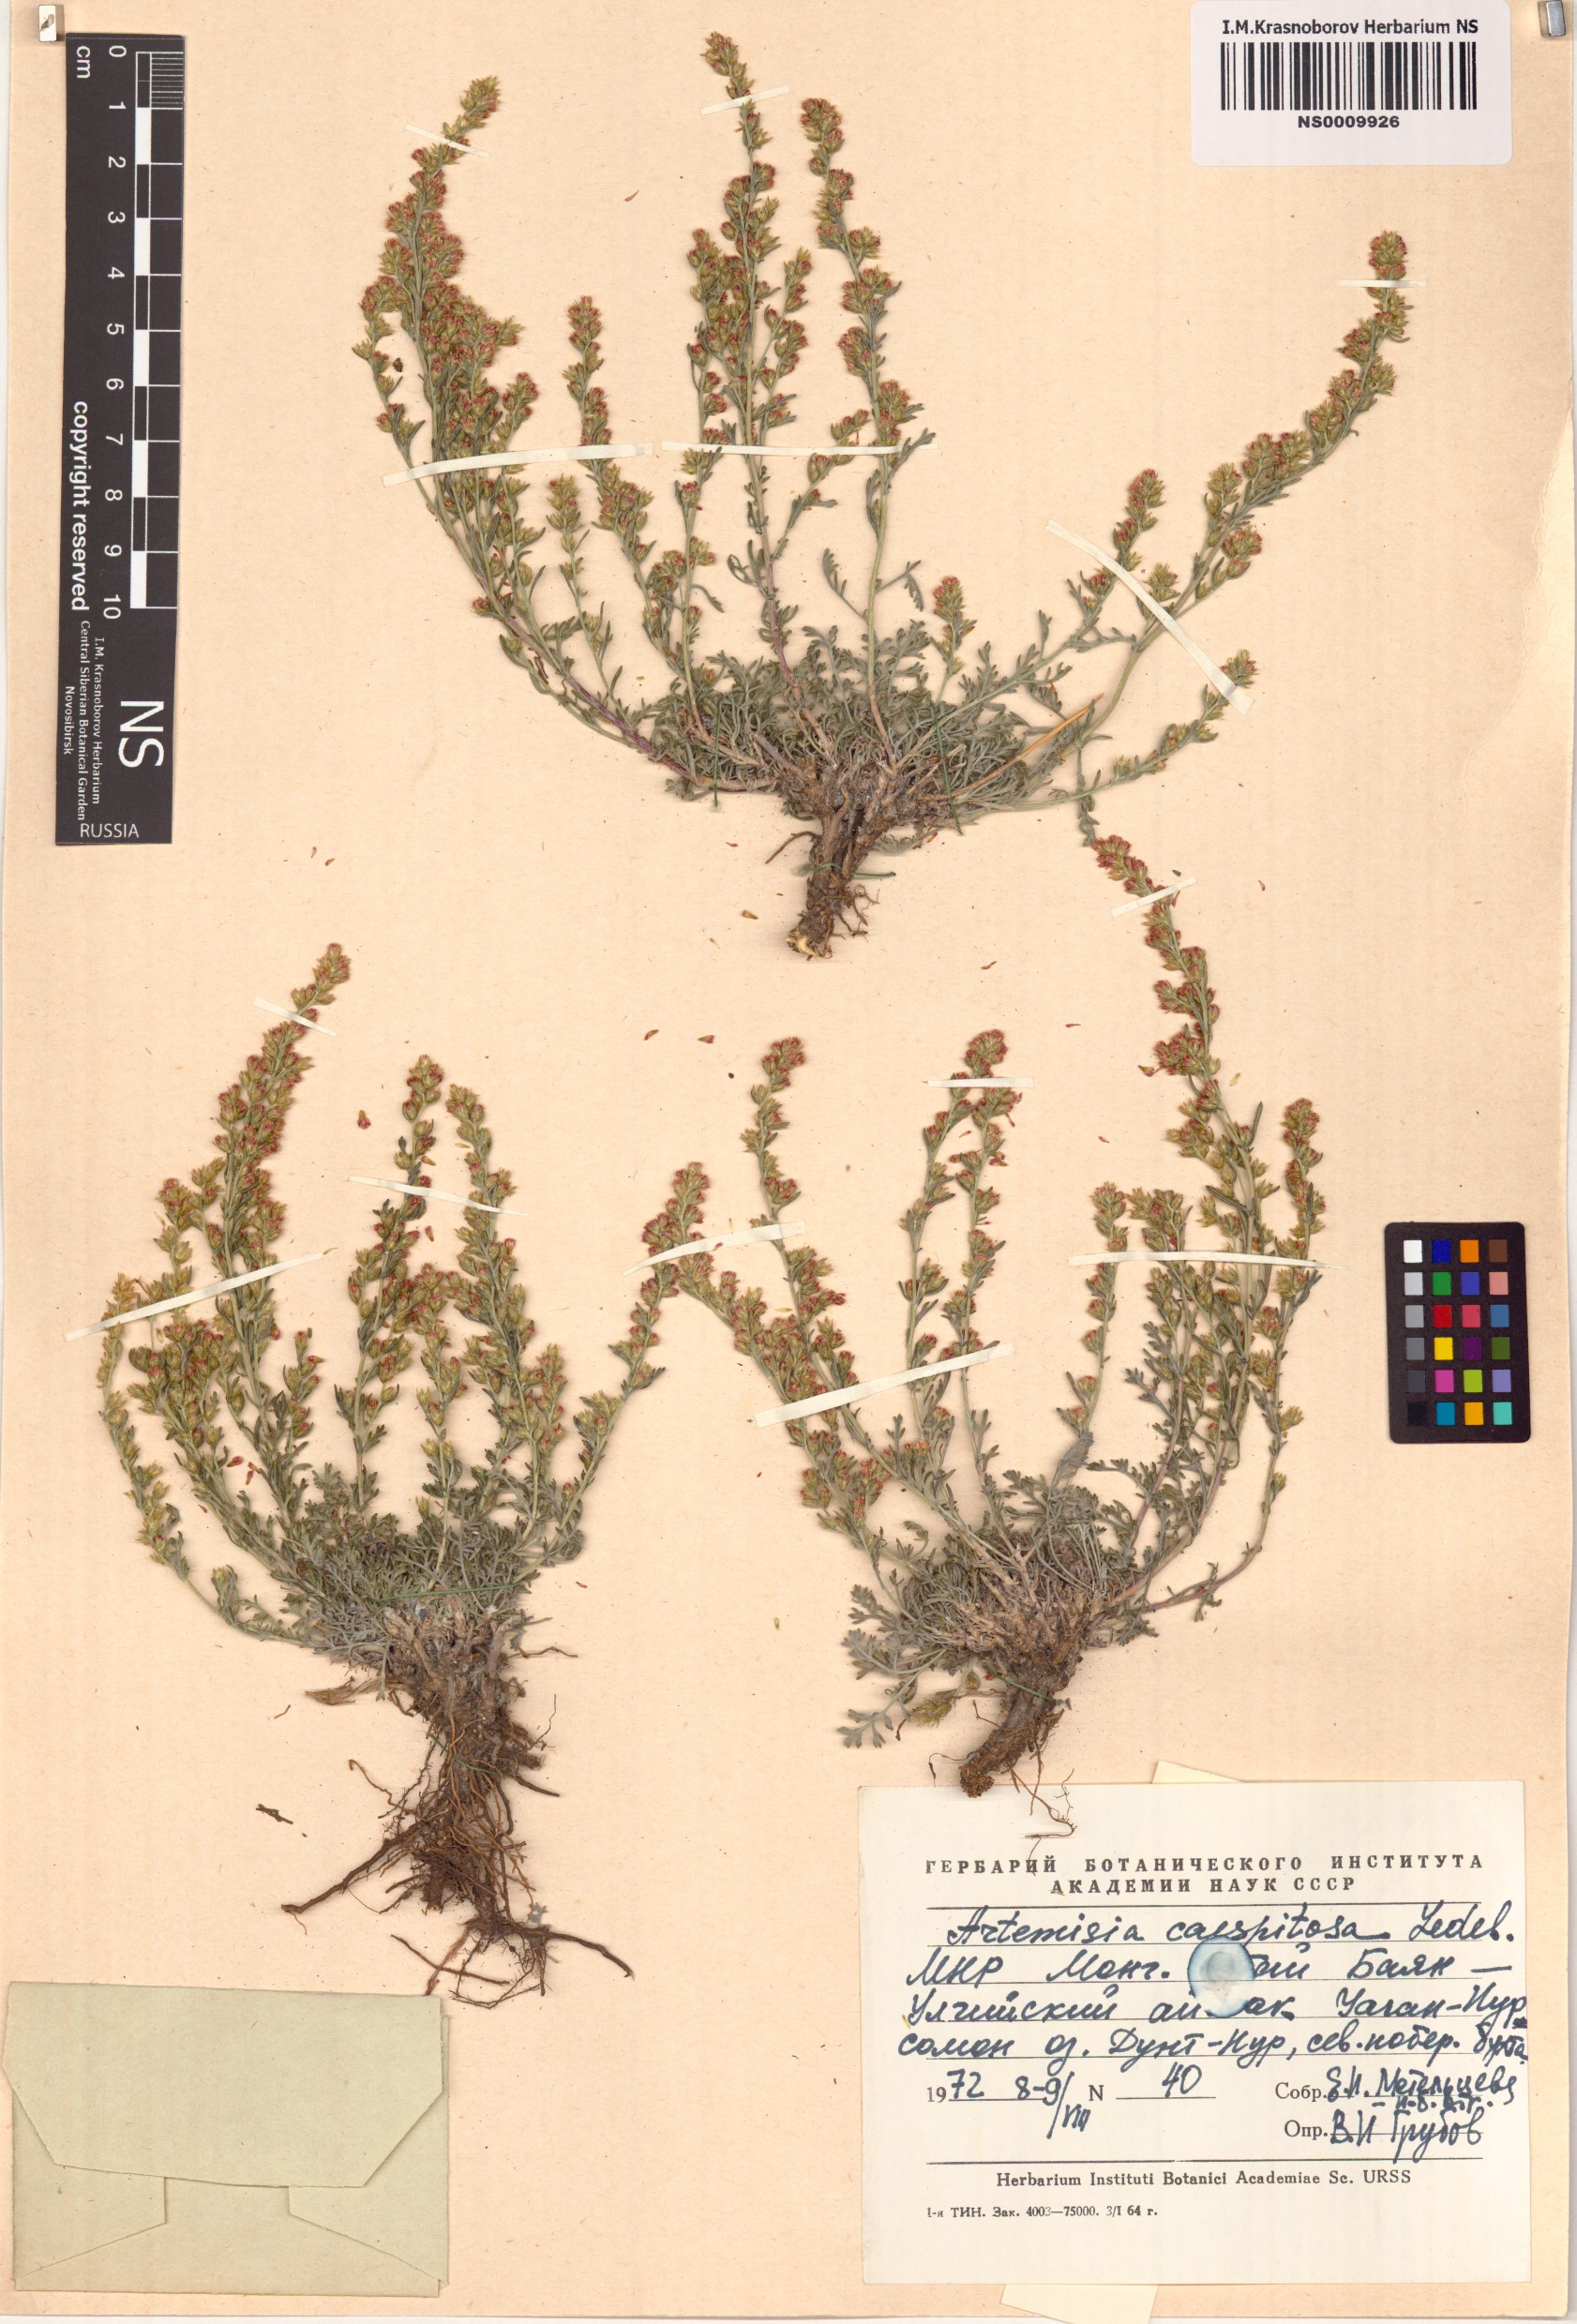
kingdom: Plantae
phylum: Tracheophyta
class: Magnoliopsida
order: Asterales
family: Asteraceae
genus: Artemisia
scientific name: Artemisia caespitosa
